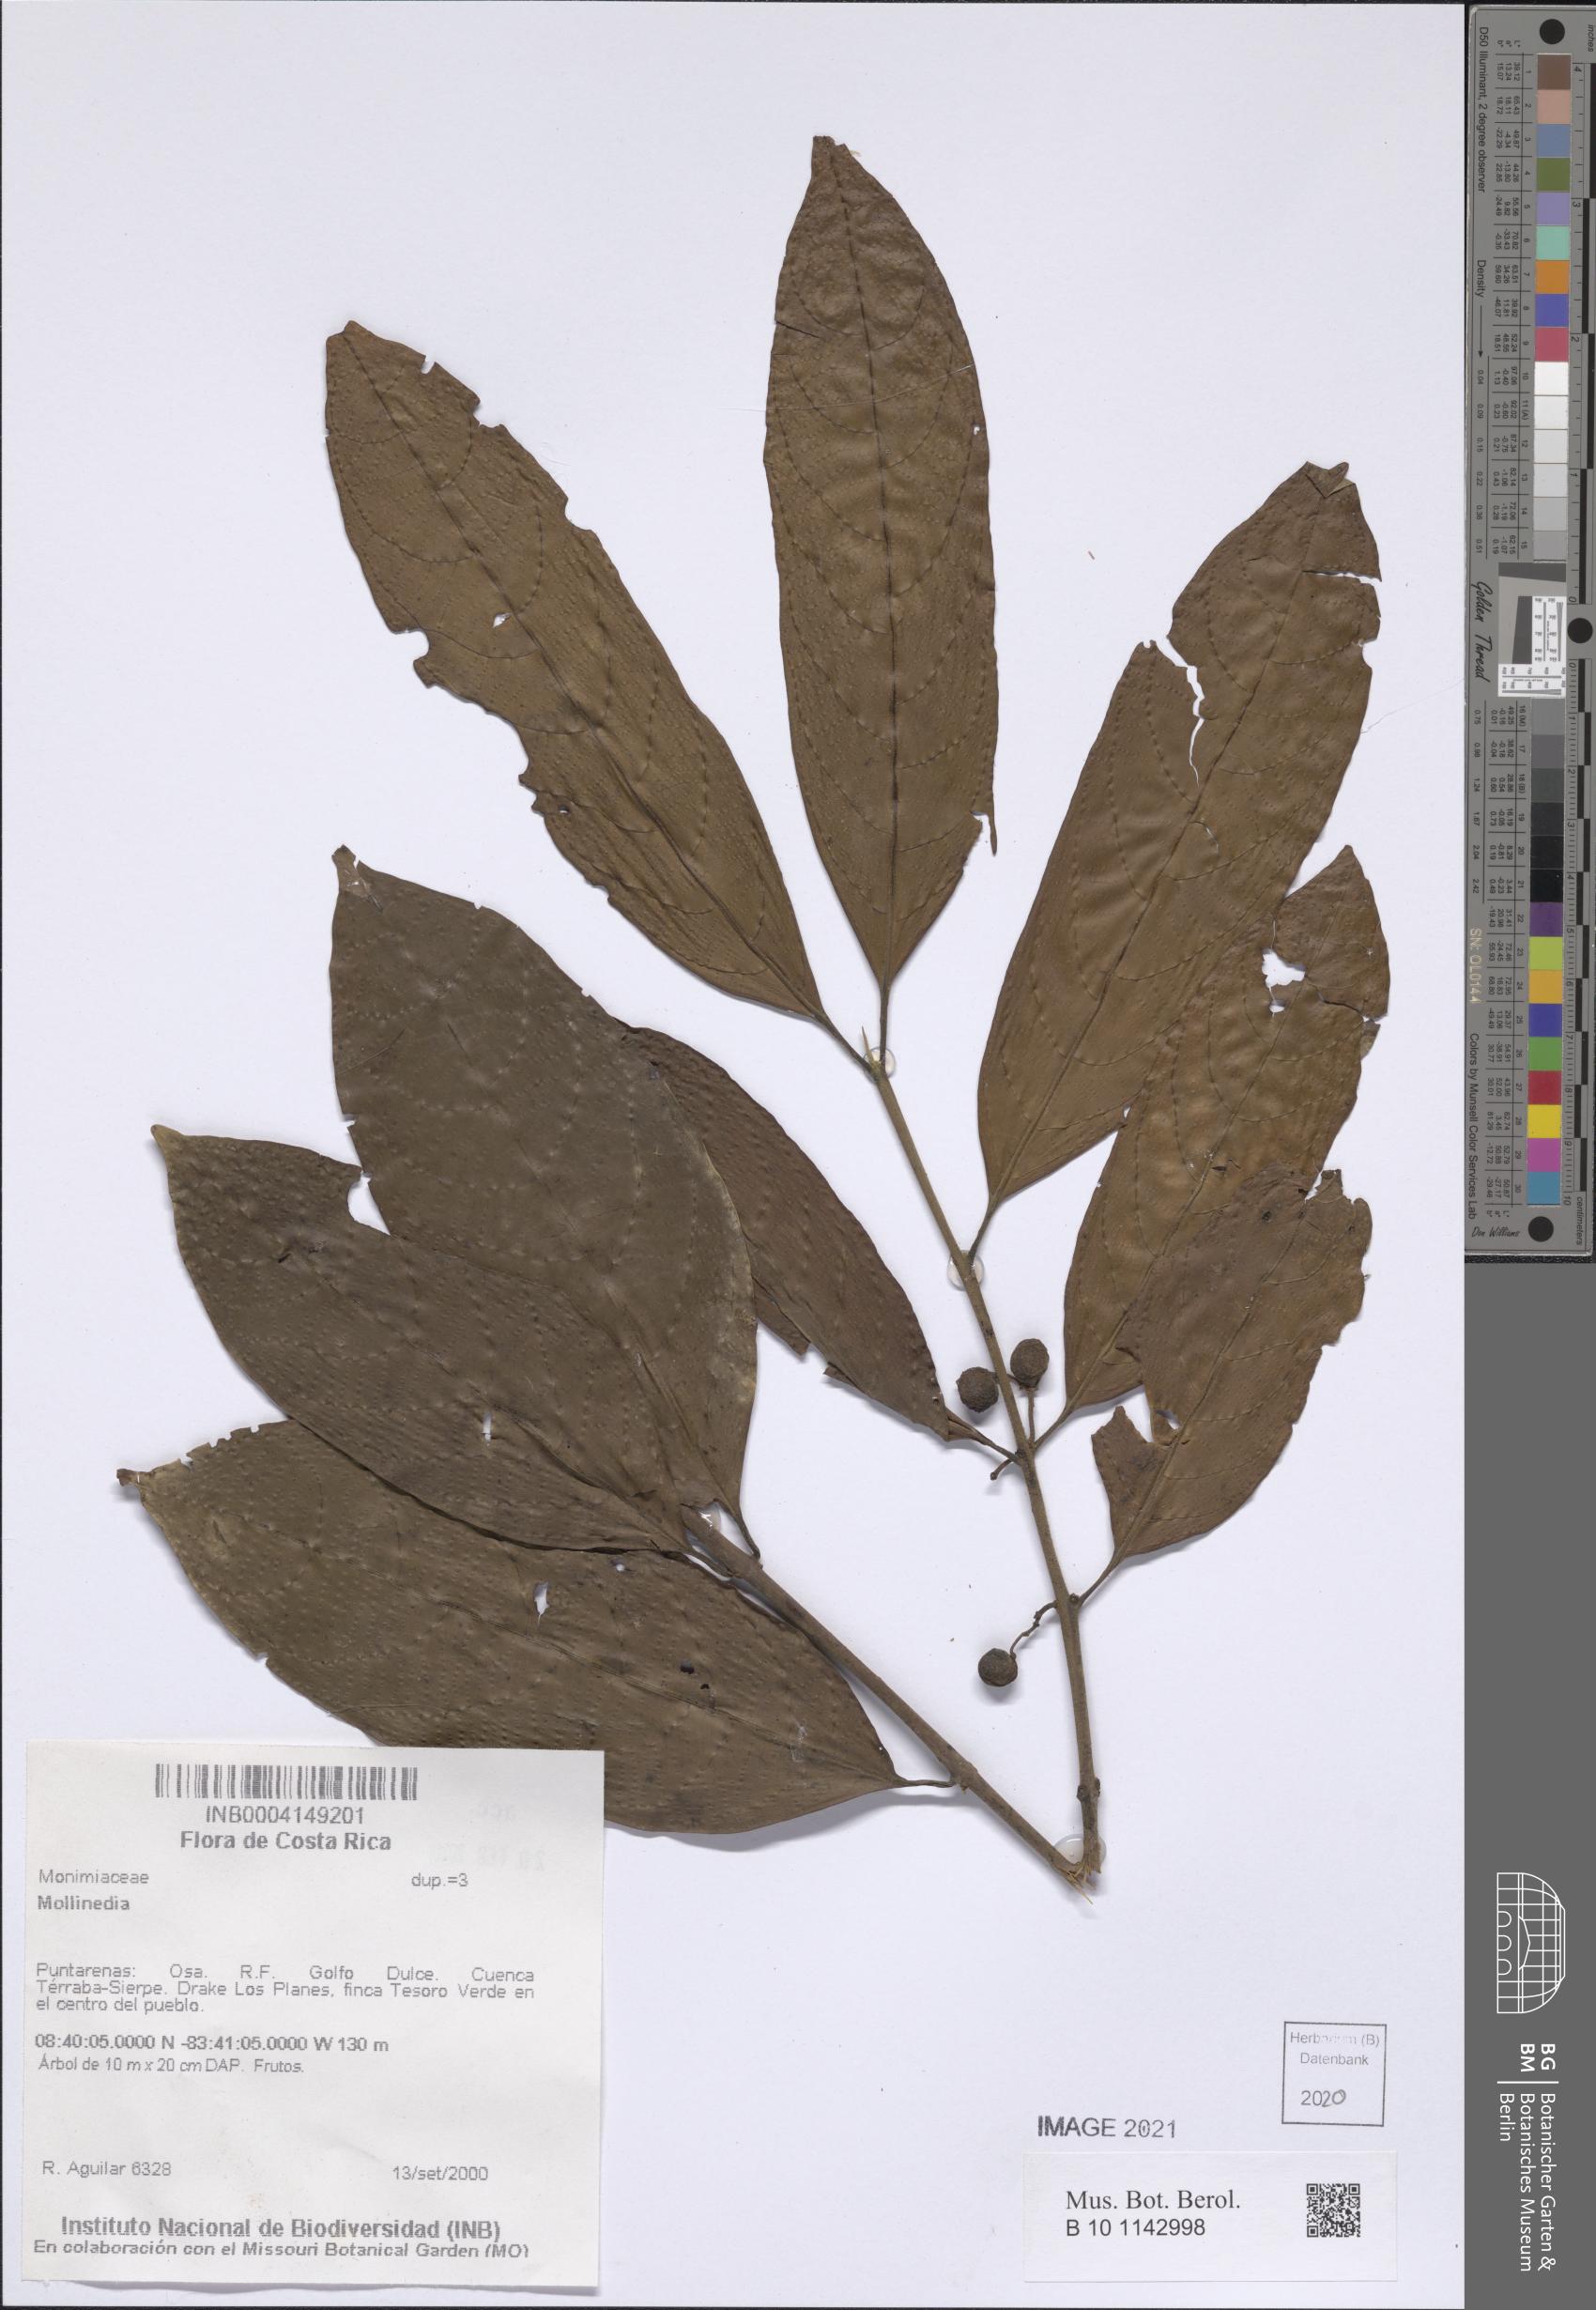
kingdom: Plantae
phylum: Tracheophyta
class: Magnoliopsida
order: Laurales
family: Siparunaceae
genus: Siparuna
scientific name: Siparuna
